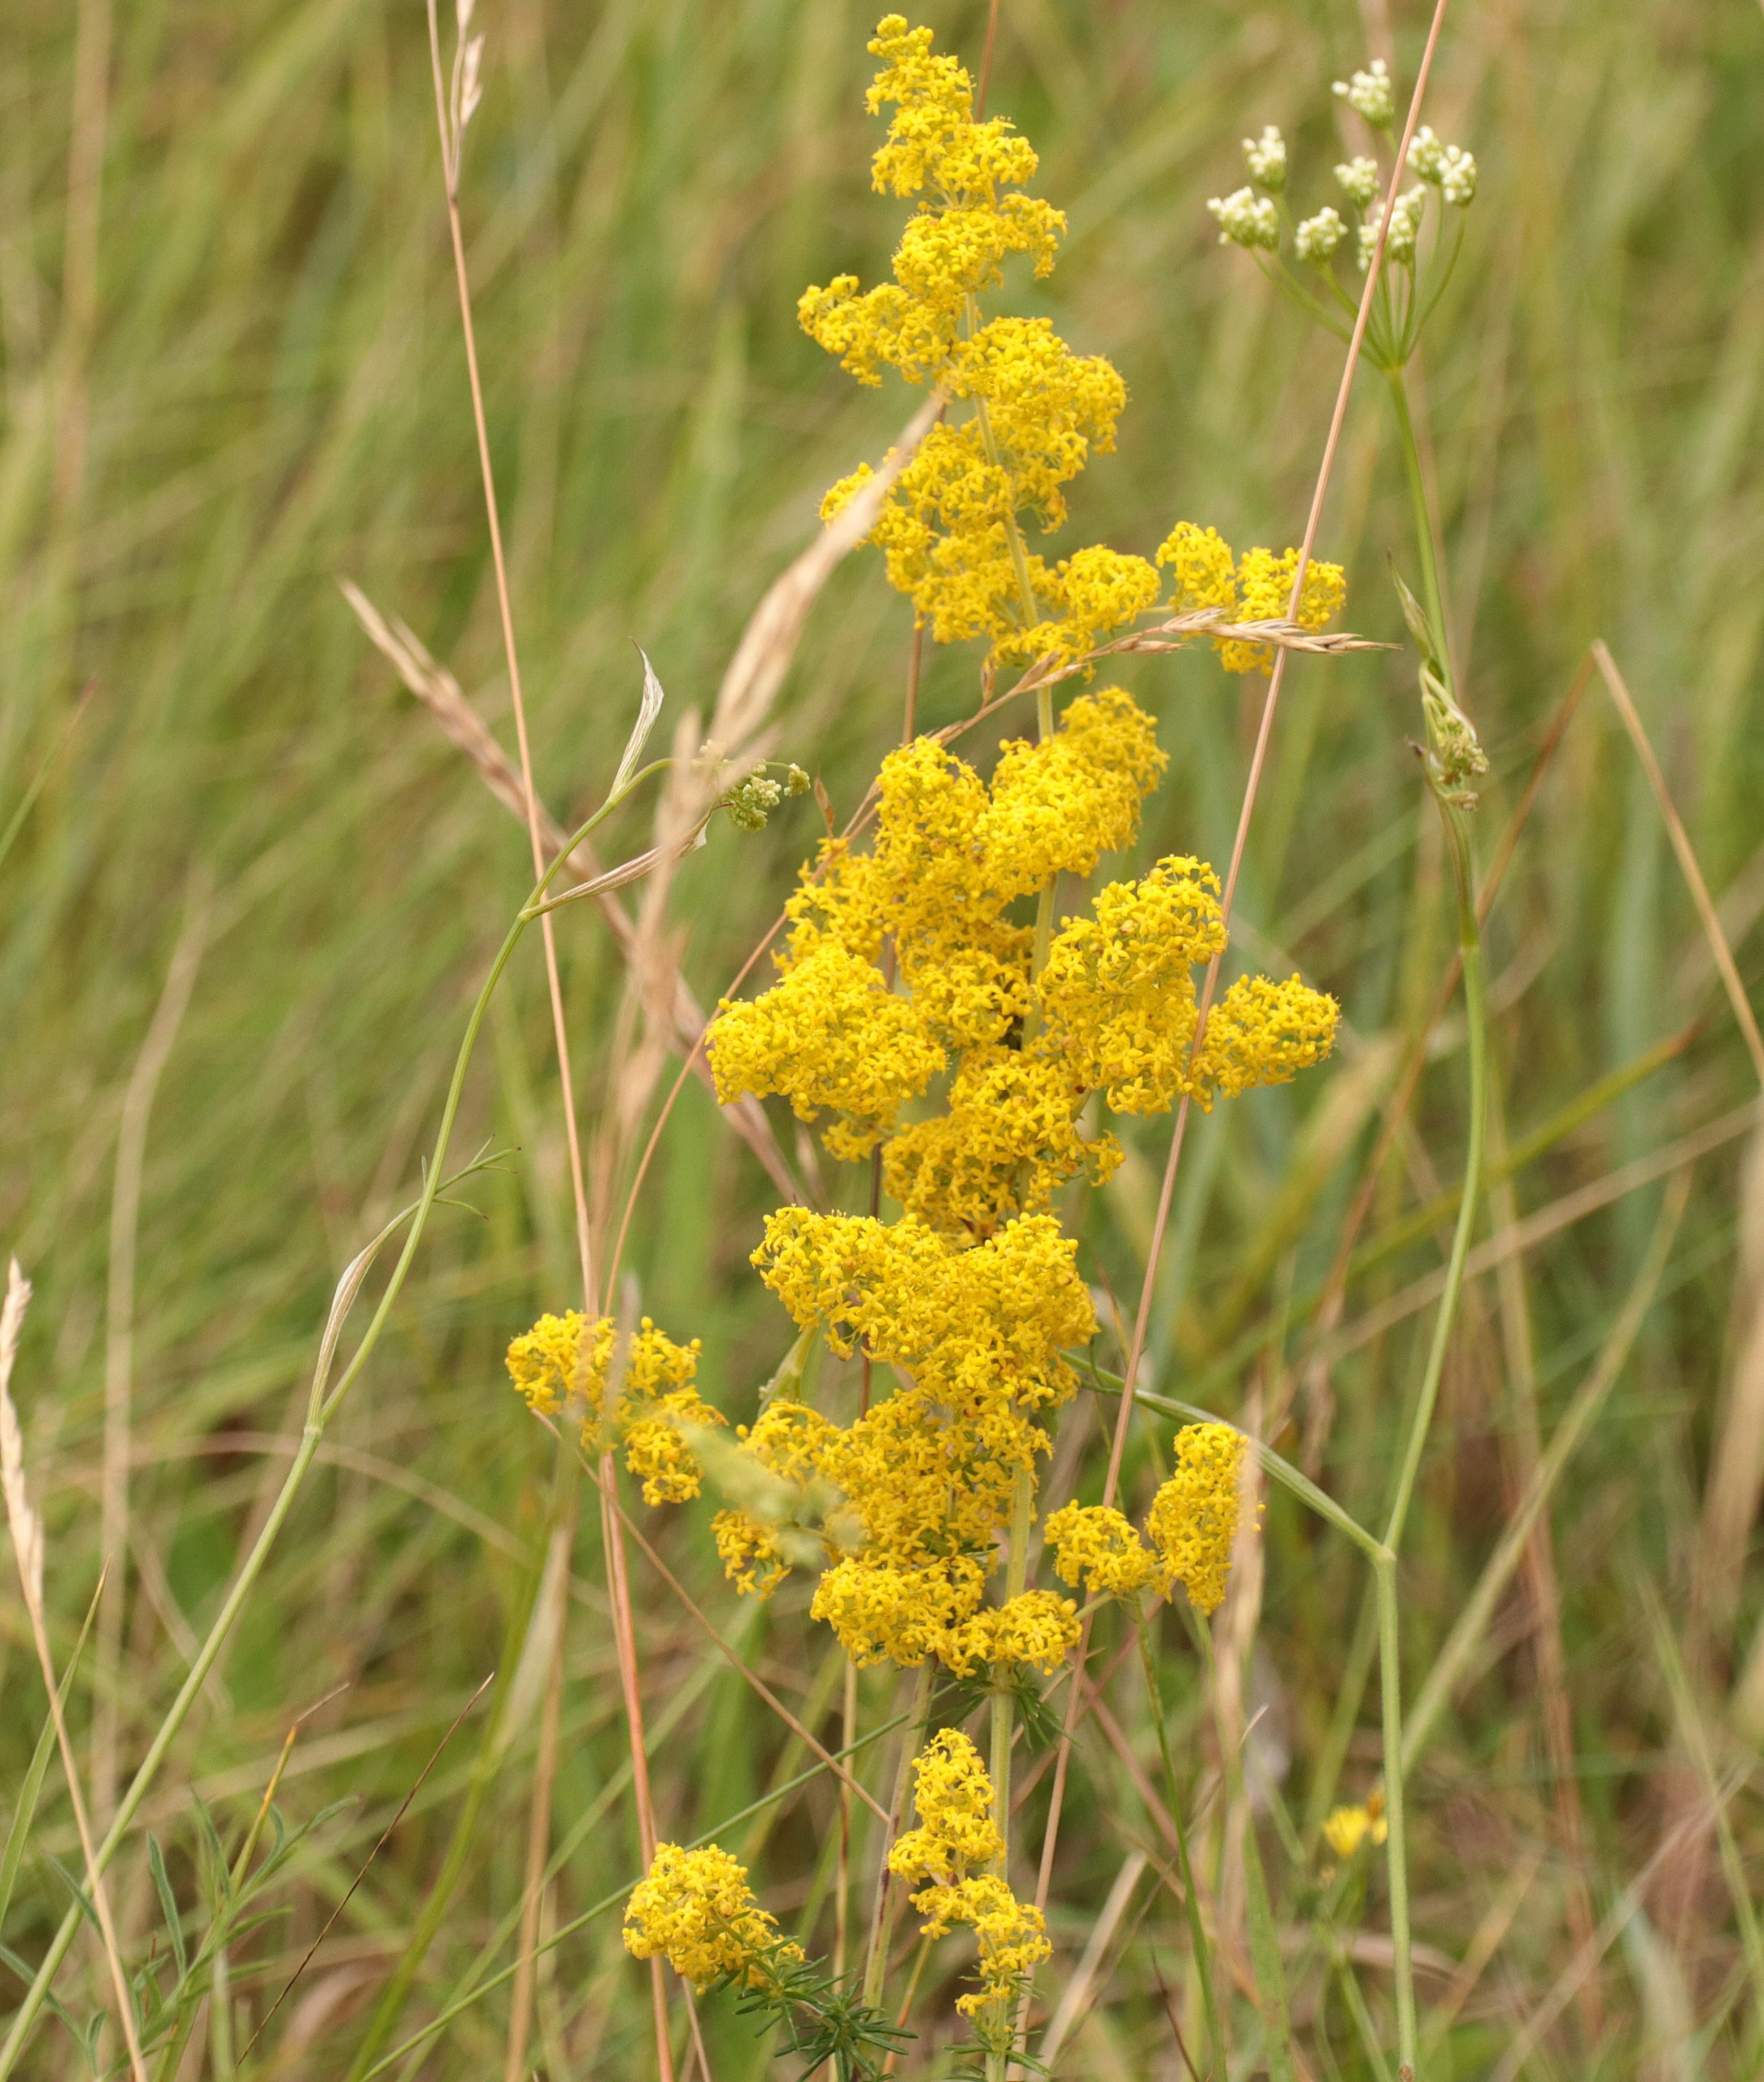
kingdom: Plantae
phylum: Tracheophyta
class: Magnoliopsida
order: Gentianales
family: Rubiaceae
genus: Galium
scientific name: Galium verum
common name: Gul snerre
